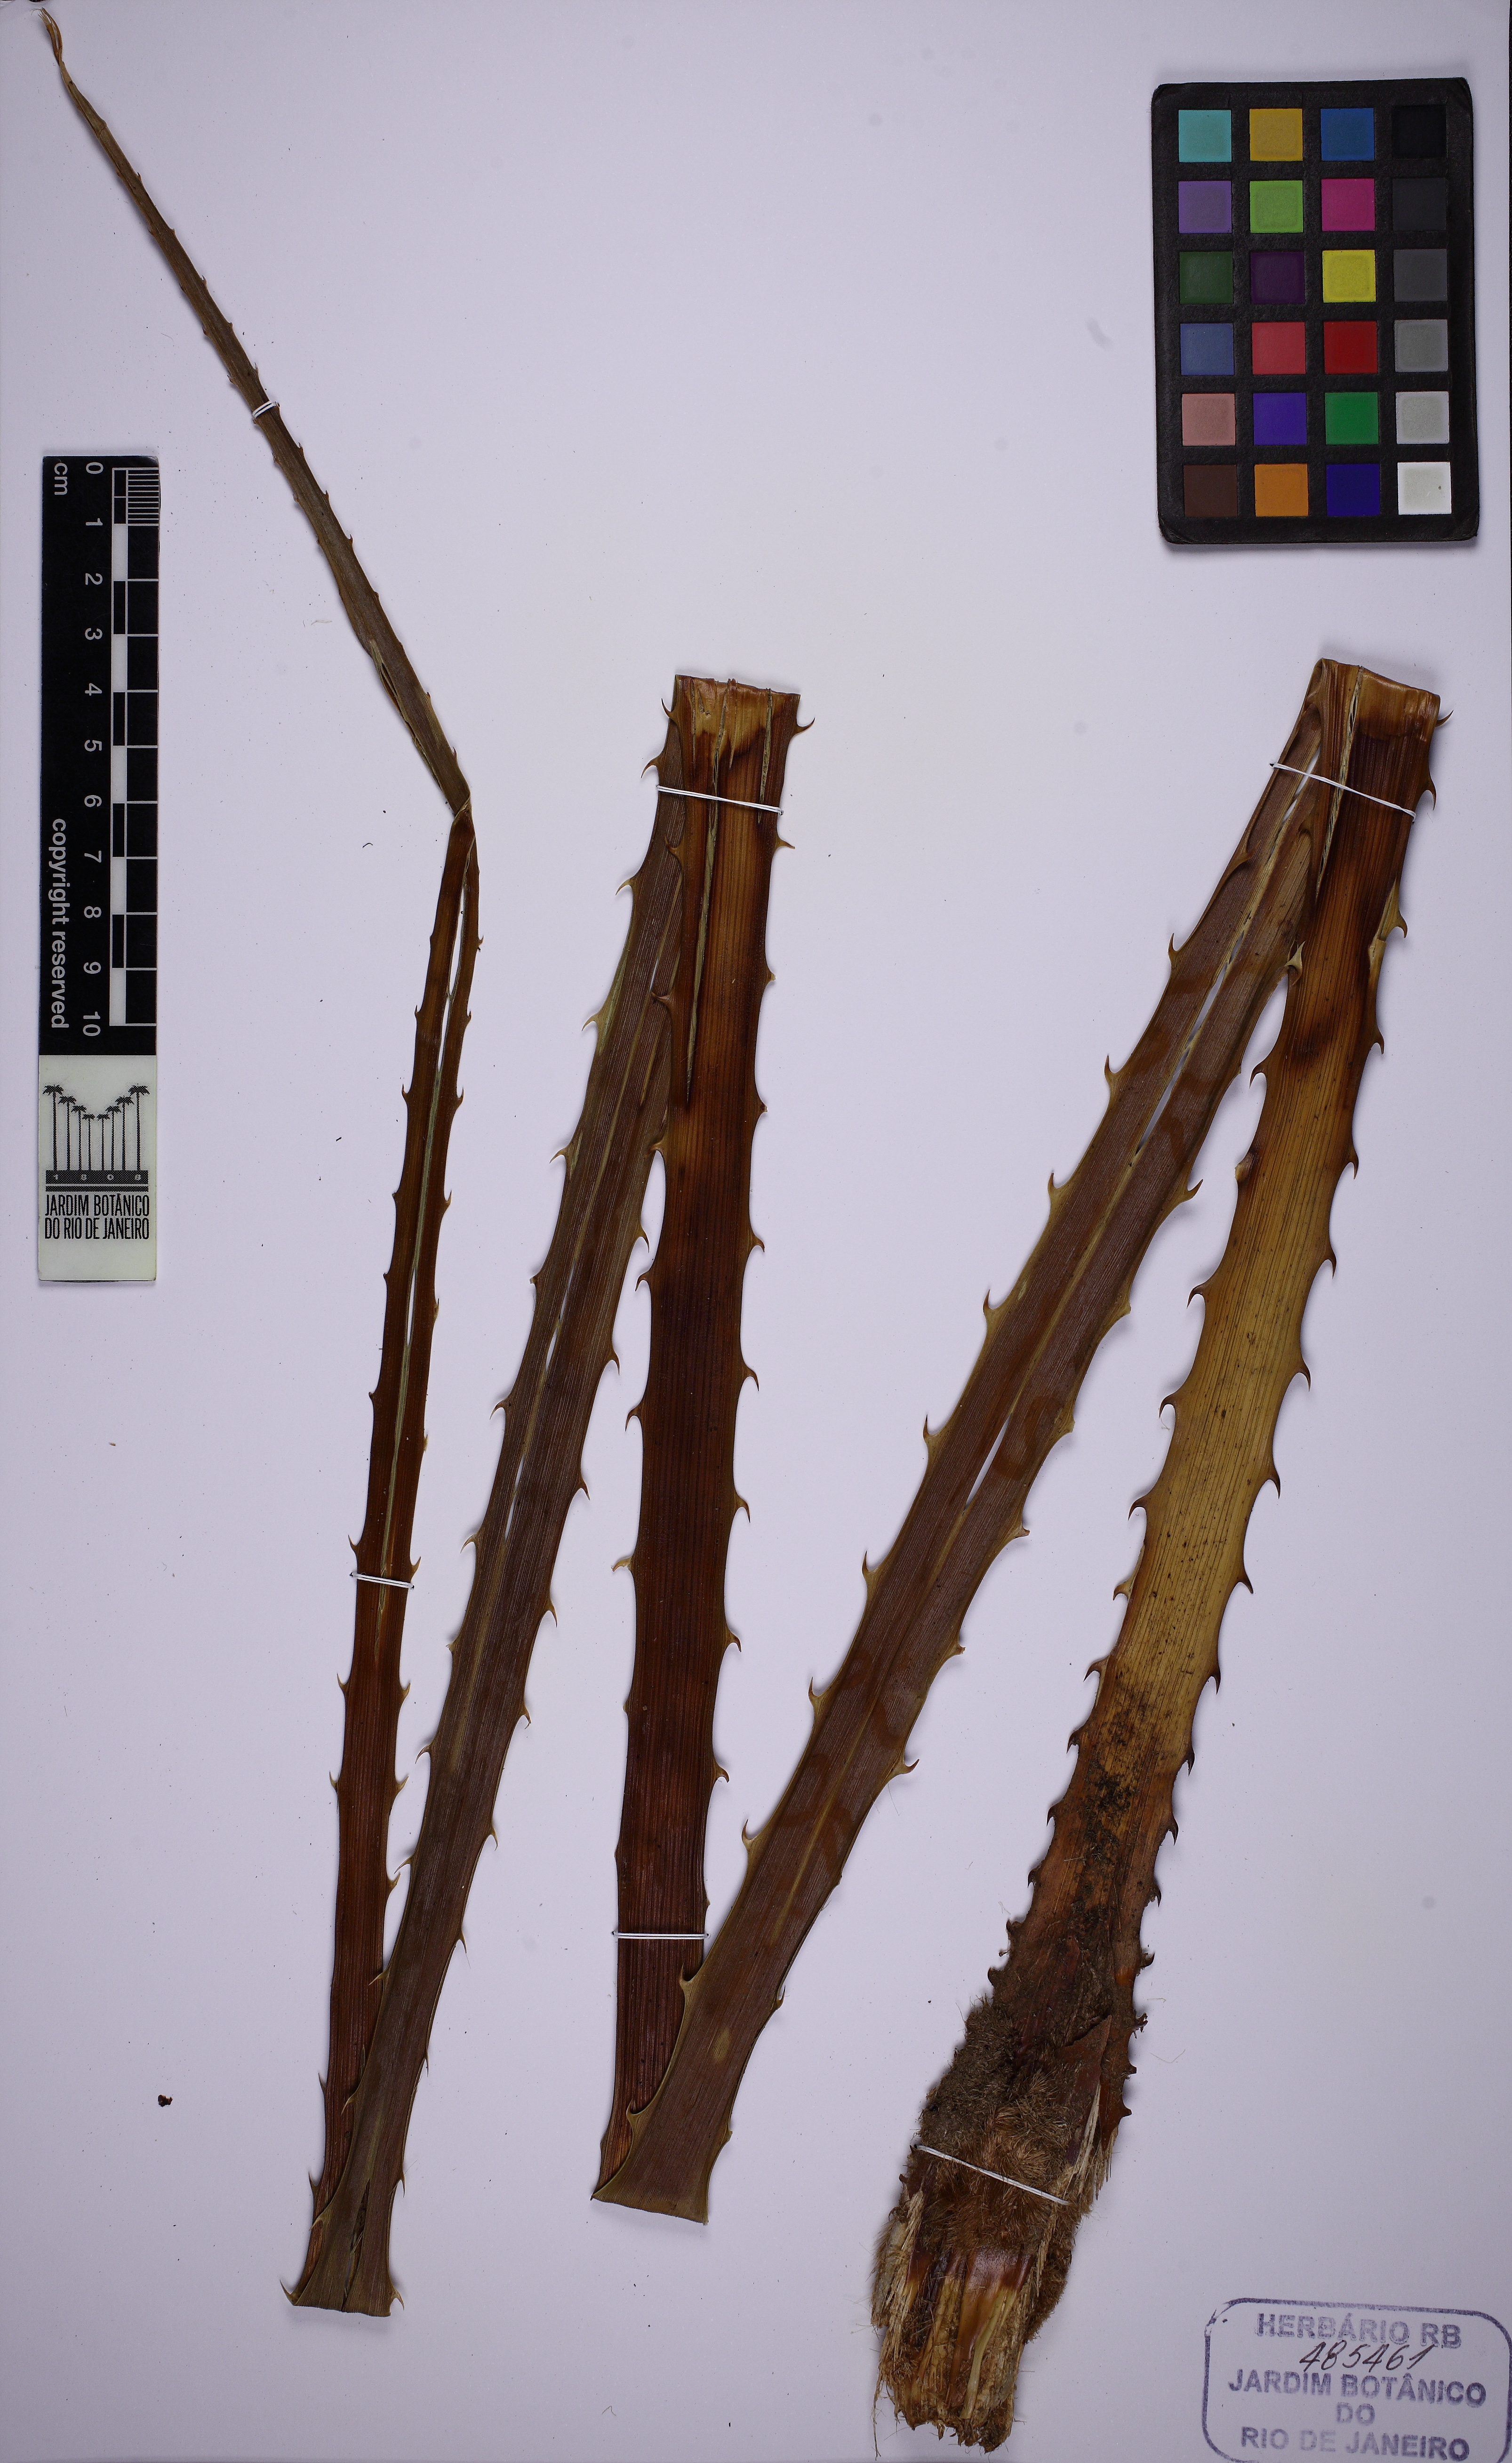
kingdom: Plantae
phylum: Tracheophyta
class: Liliopsida
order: Poales
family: Bromeliaceae
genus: Bromelia
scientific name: Bromelia karatas
